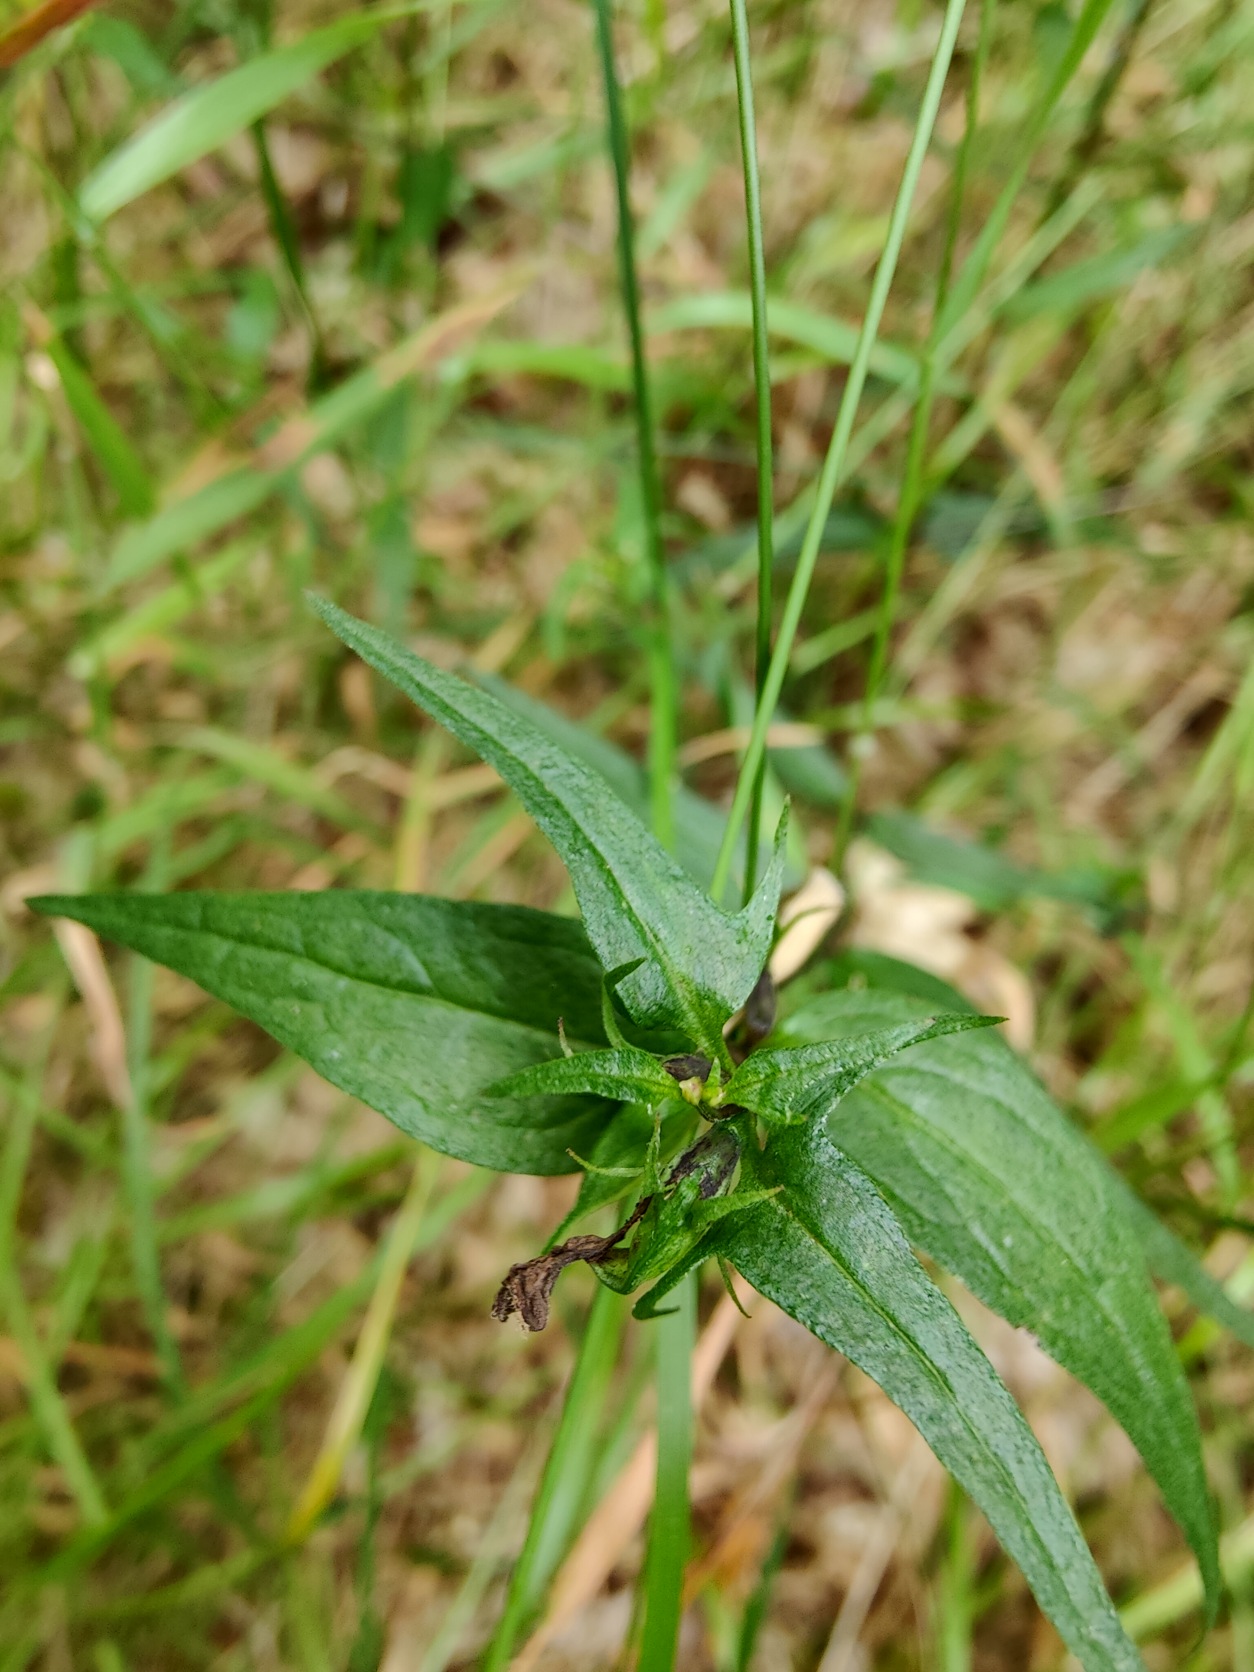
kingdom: Plantae
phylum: Tracheophyta
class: Magnoliopsida
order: Lamiales
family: Orobanchaceae
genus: Melampyrum
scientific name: Melampyrum pratense
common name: Almindelig kohvede
